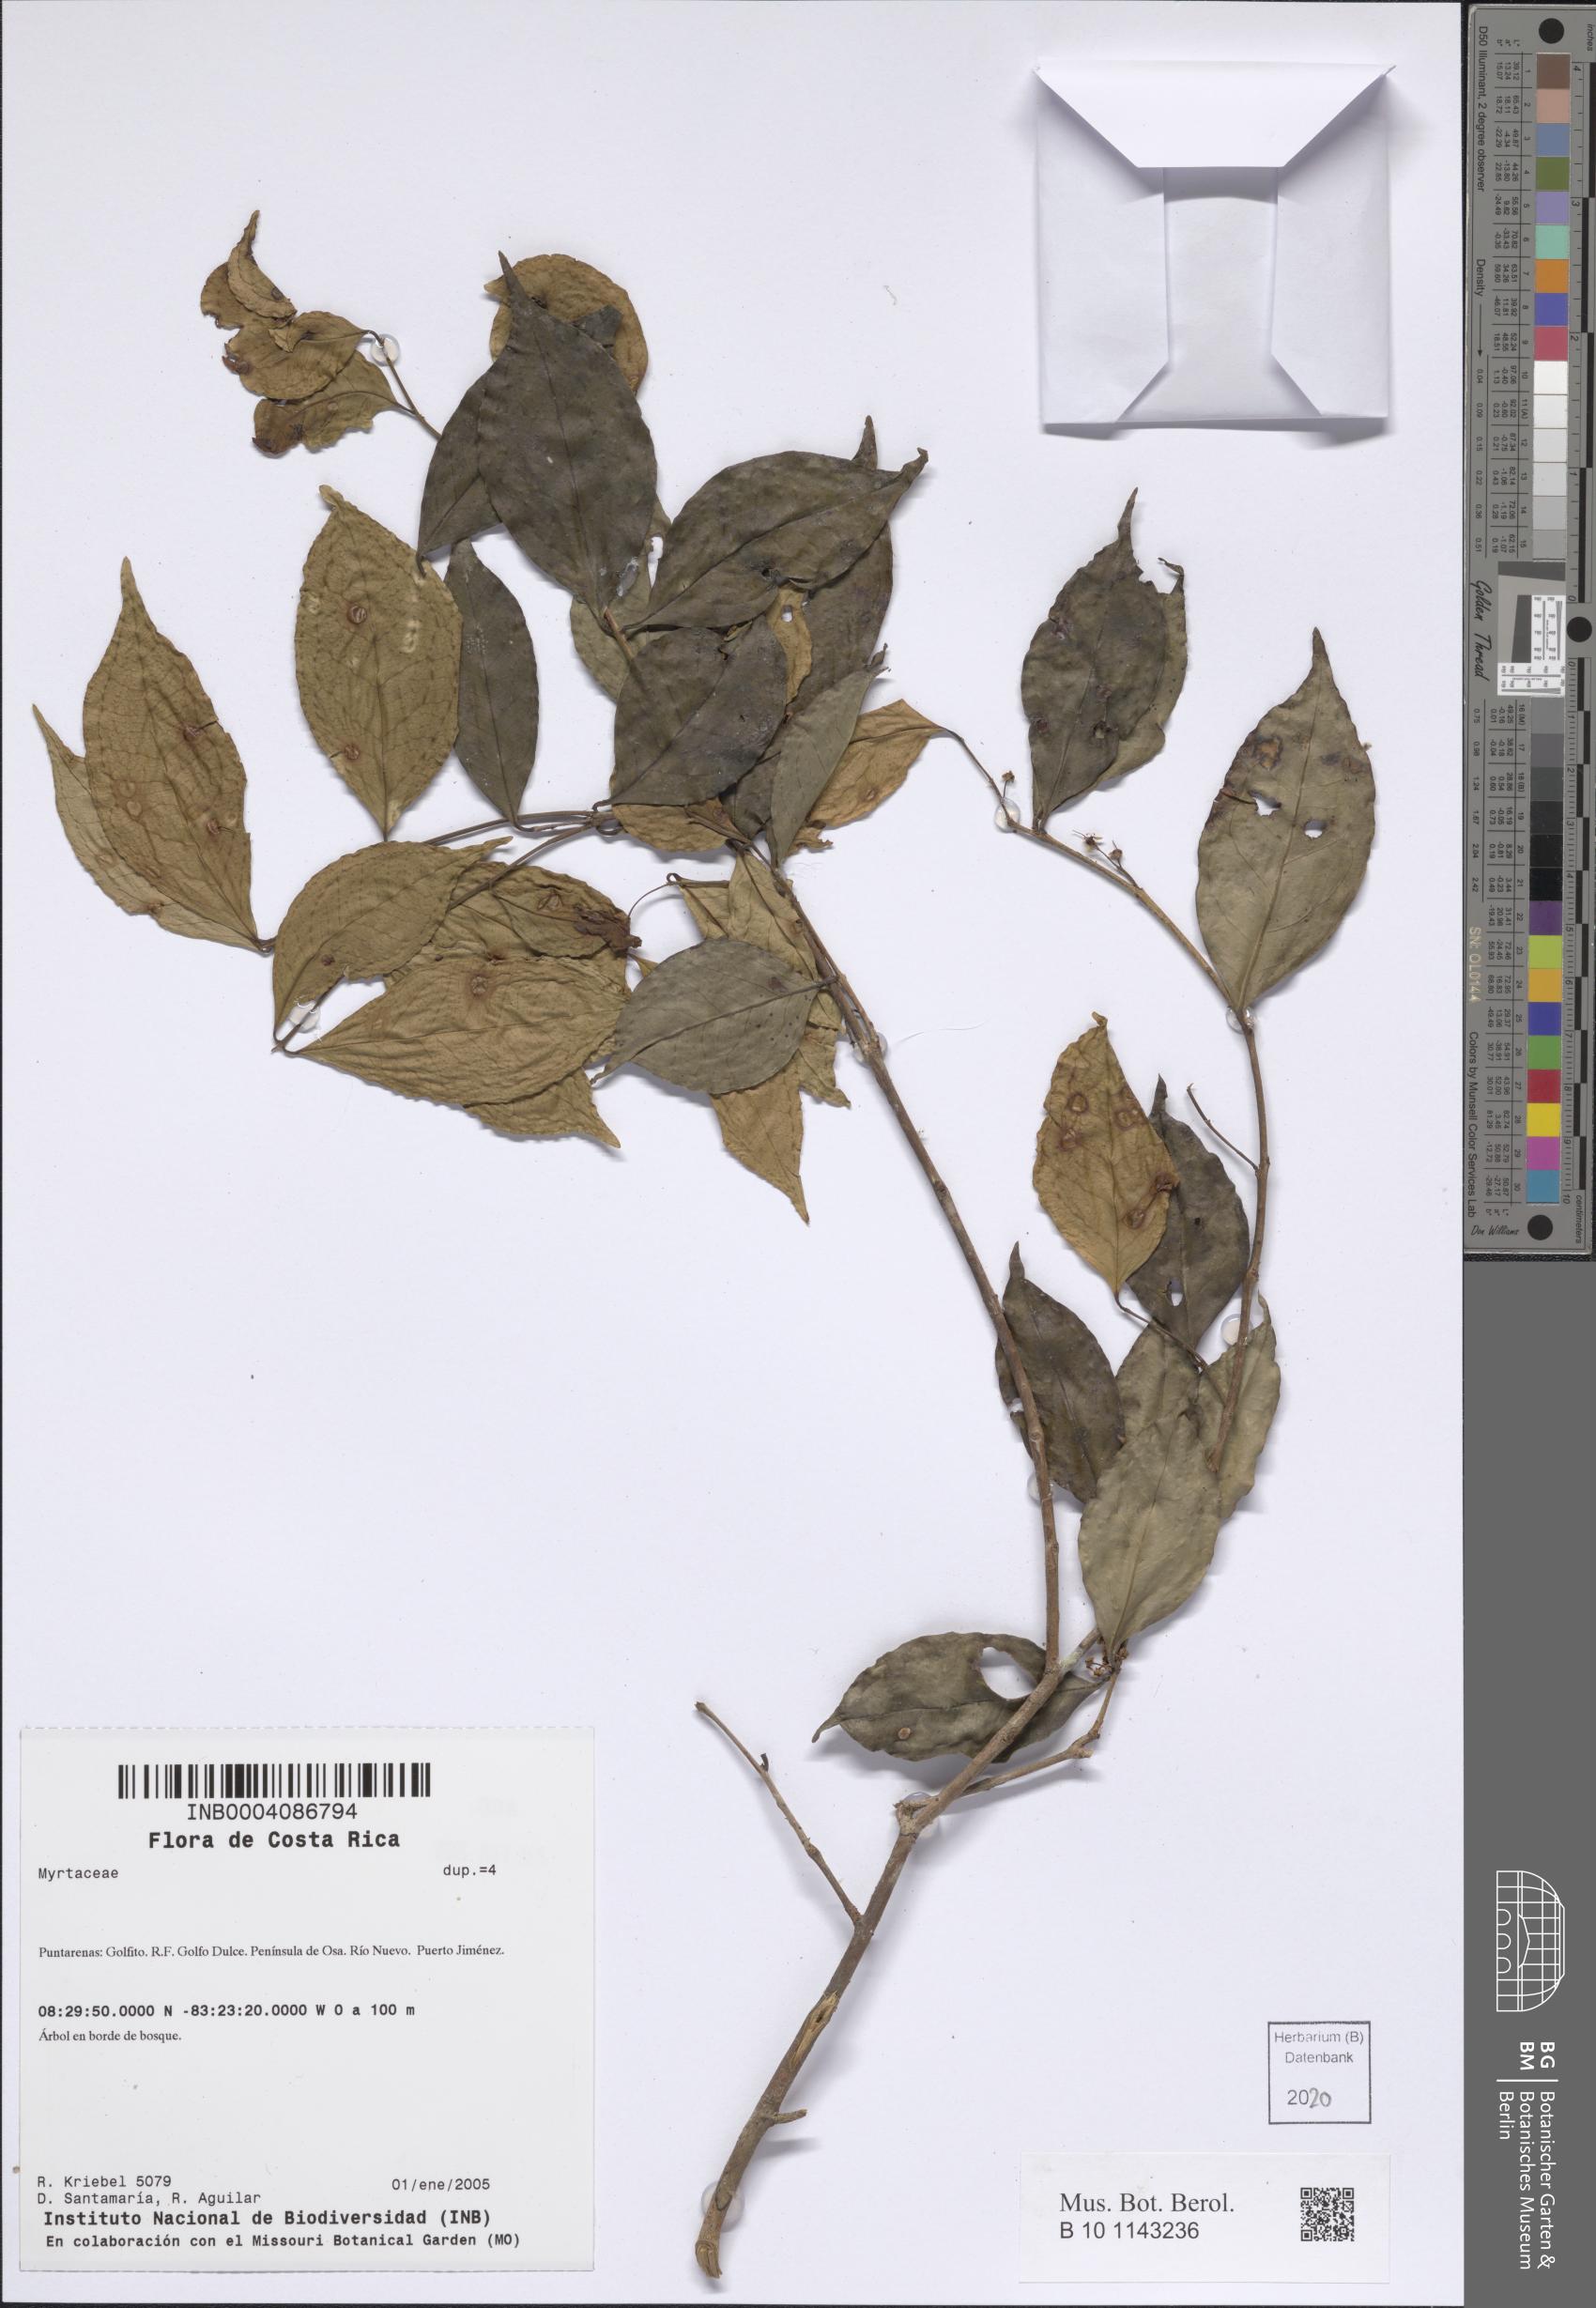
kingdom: Plantae
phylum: Tracheophyta
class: Magnoliopsida
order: Myrtales
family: Myrtaceae
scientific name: Myrtaceae
